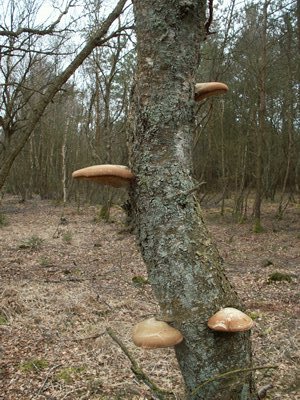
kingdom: Fungi
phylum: Basidiomycota
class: Agaricomycetes
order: Polyporales
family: Fomitopsidaceae
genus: Fomitopsis
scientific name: Fomitopsis betulina
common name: birkeporesvamp
